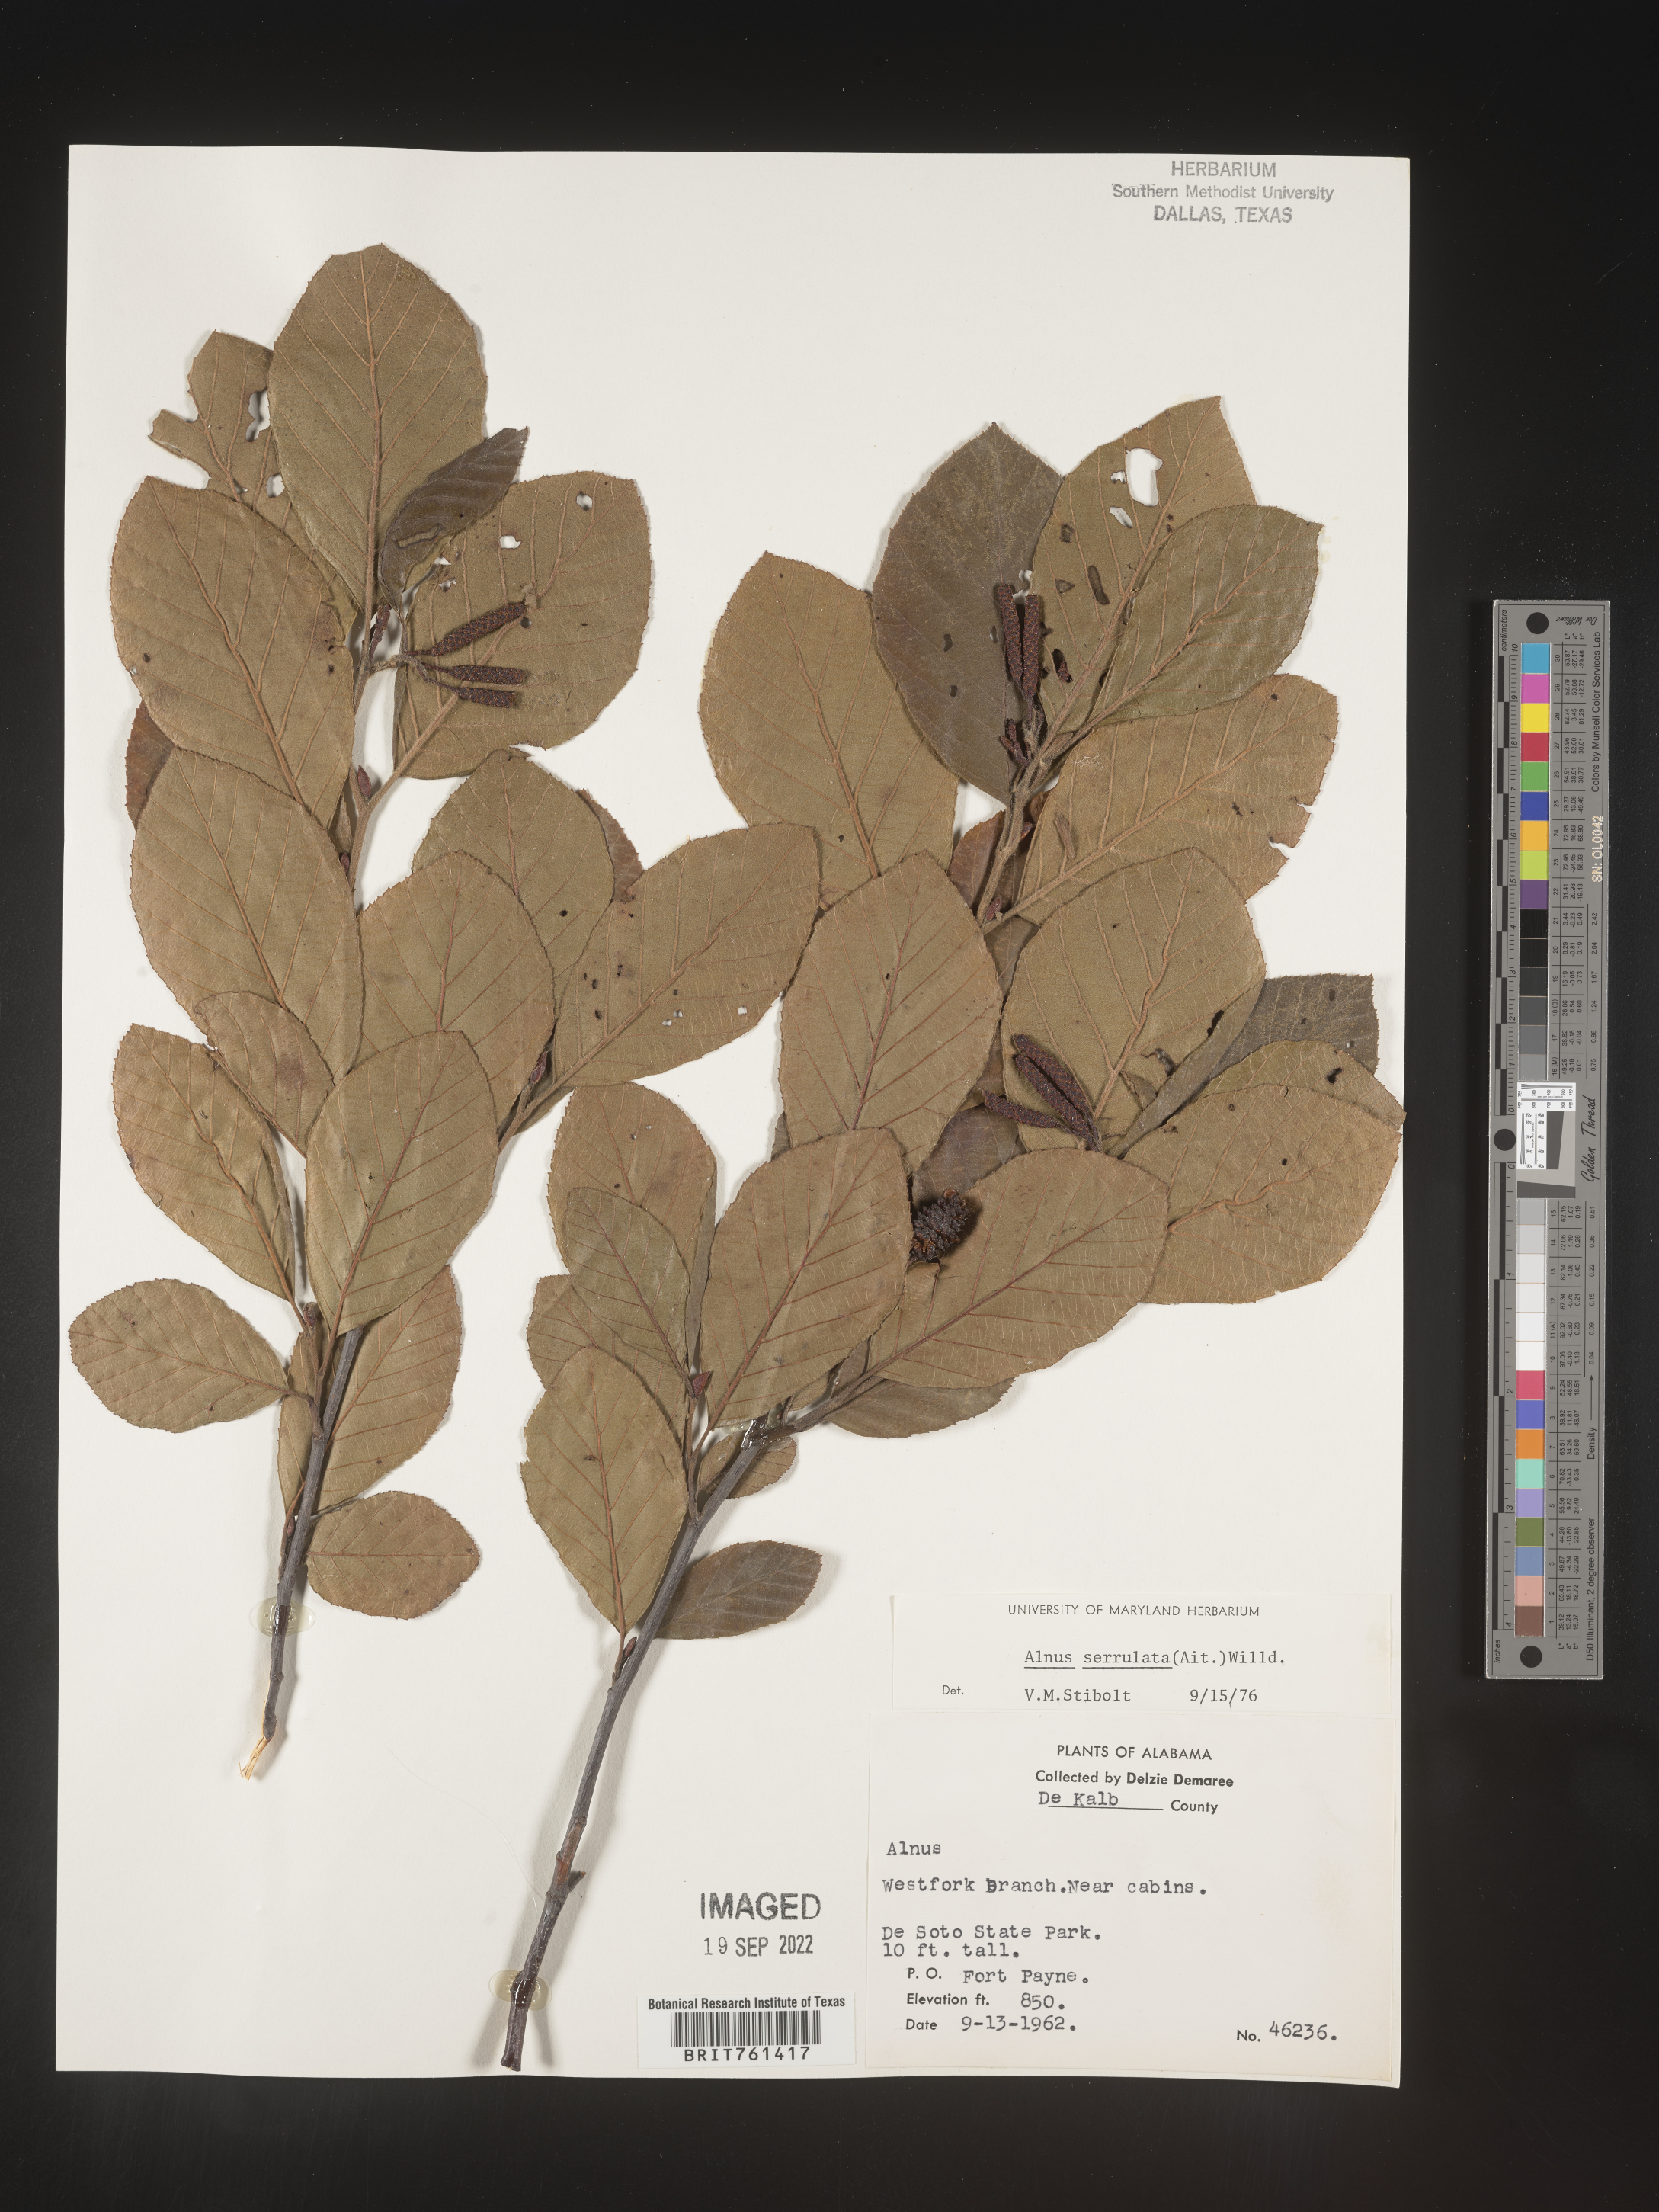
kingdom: Plantae
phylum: Tracheophyta
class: Magnoliopsida
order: Fagales
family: Betulaceae
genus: Alnus
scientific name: Alnus serrulata
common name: Hazel alder
